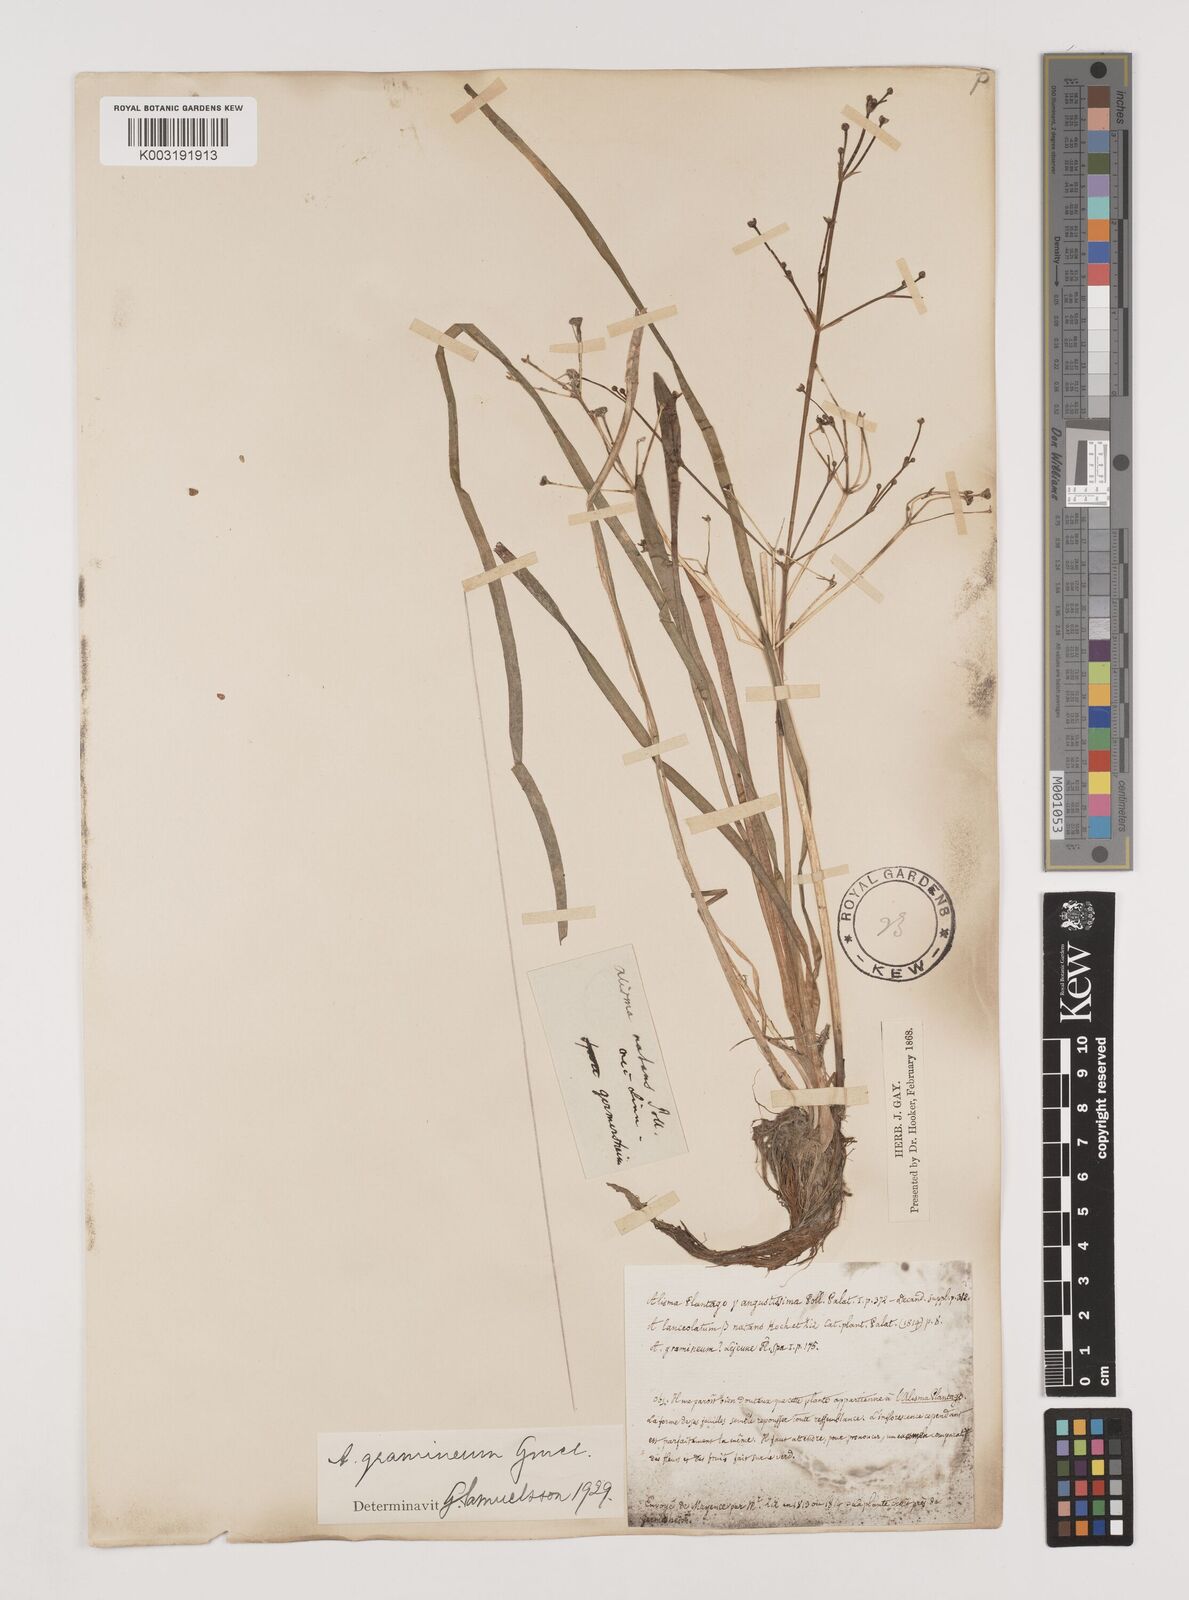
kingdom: Plantae
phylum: Tracheophyta
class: Liliopsida
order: Alismatales
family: Alismataceae
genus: Alisma
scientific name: Alisma gramineum
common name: Ribbon-leaved water-plantain
